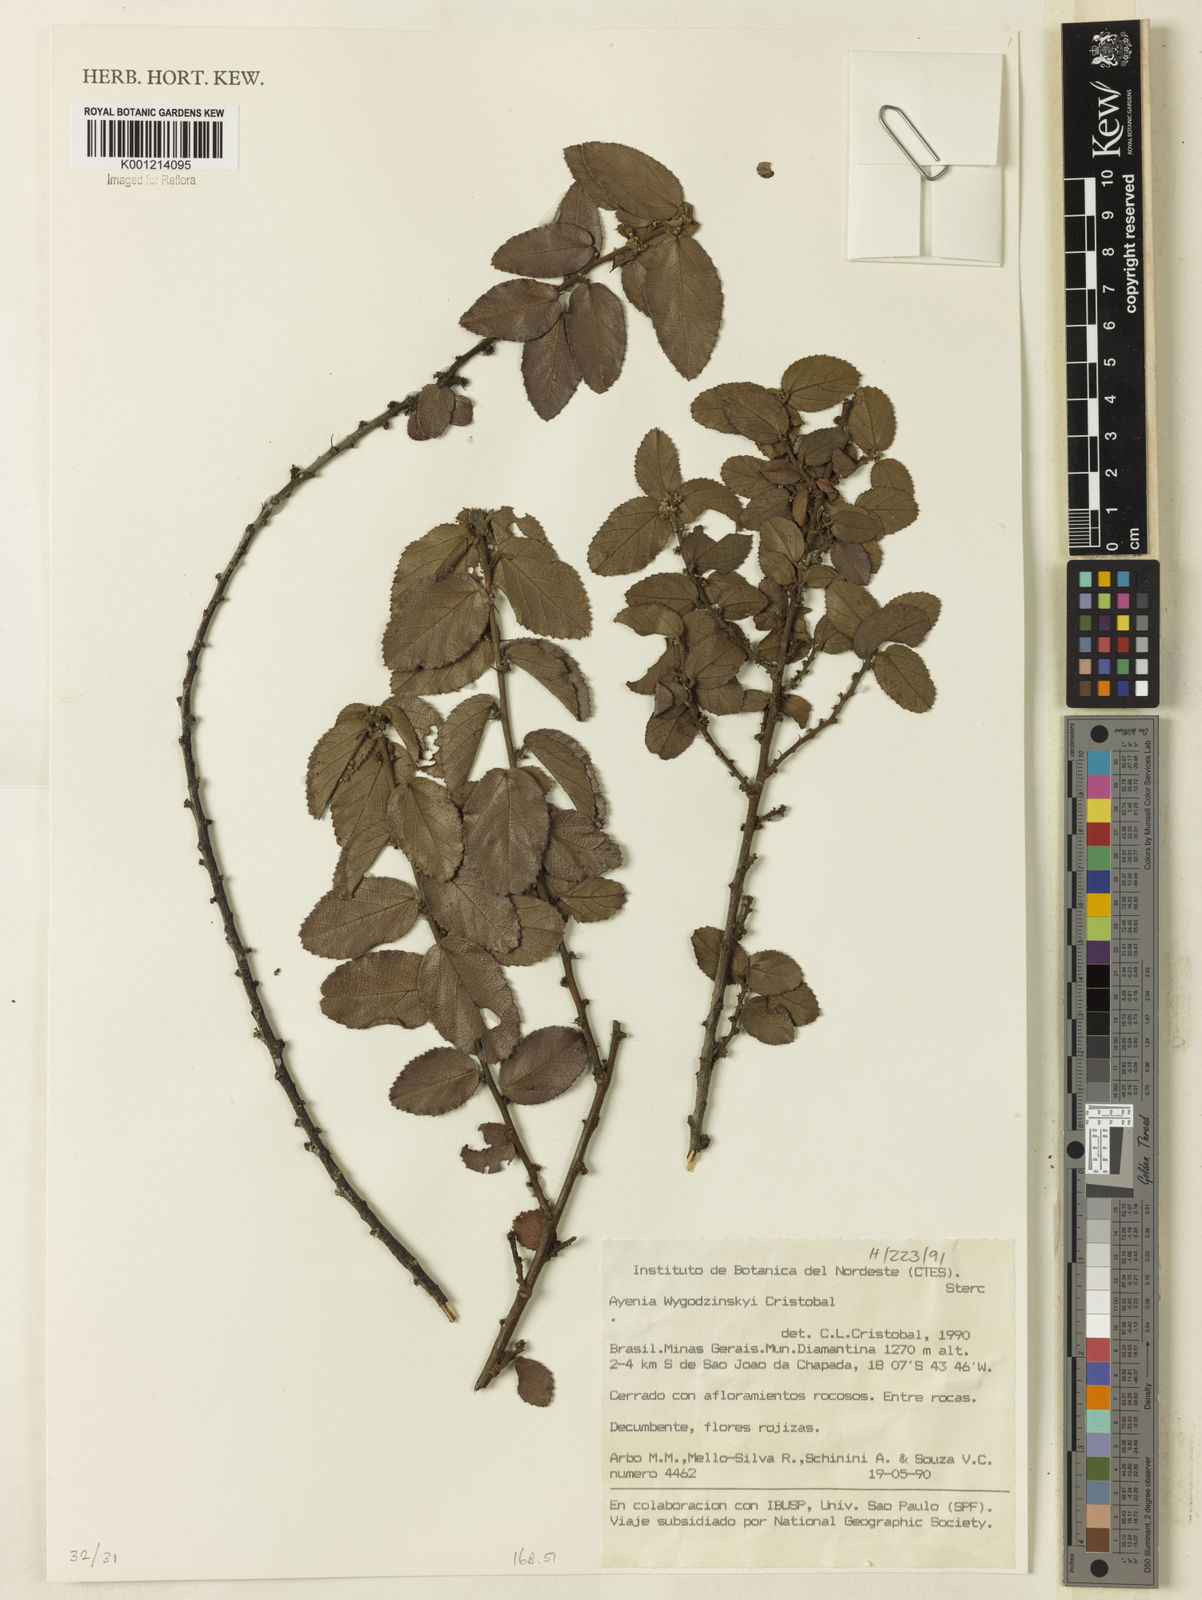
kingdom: Plantae
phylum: Tracheophyta
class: Magnoliopsida
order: Malvales
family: Malvaceae
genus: Ayenia
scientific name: Ayenia
